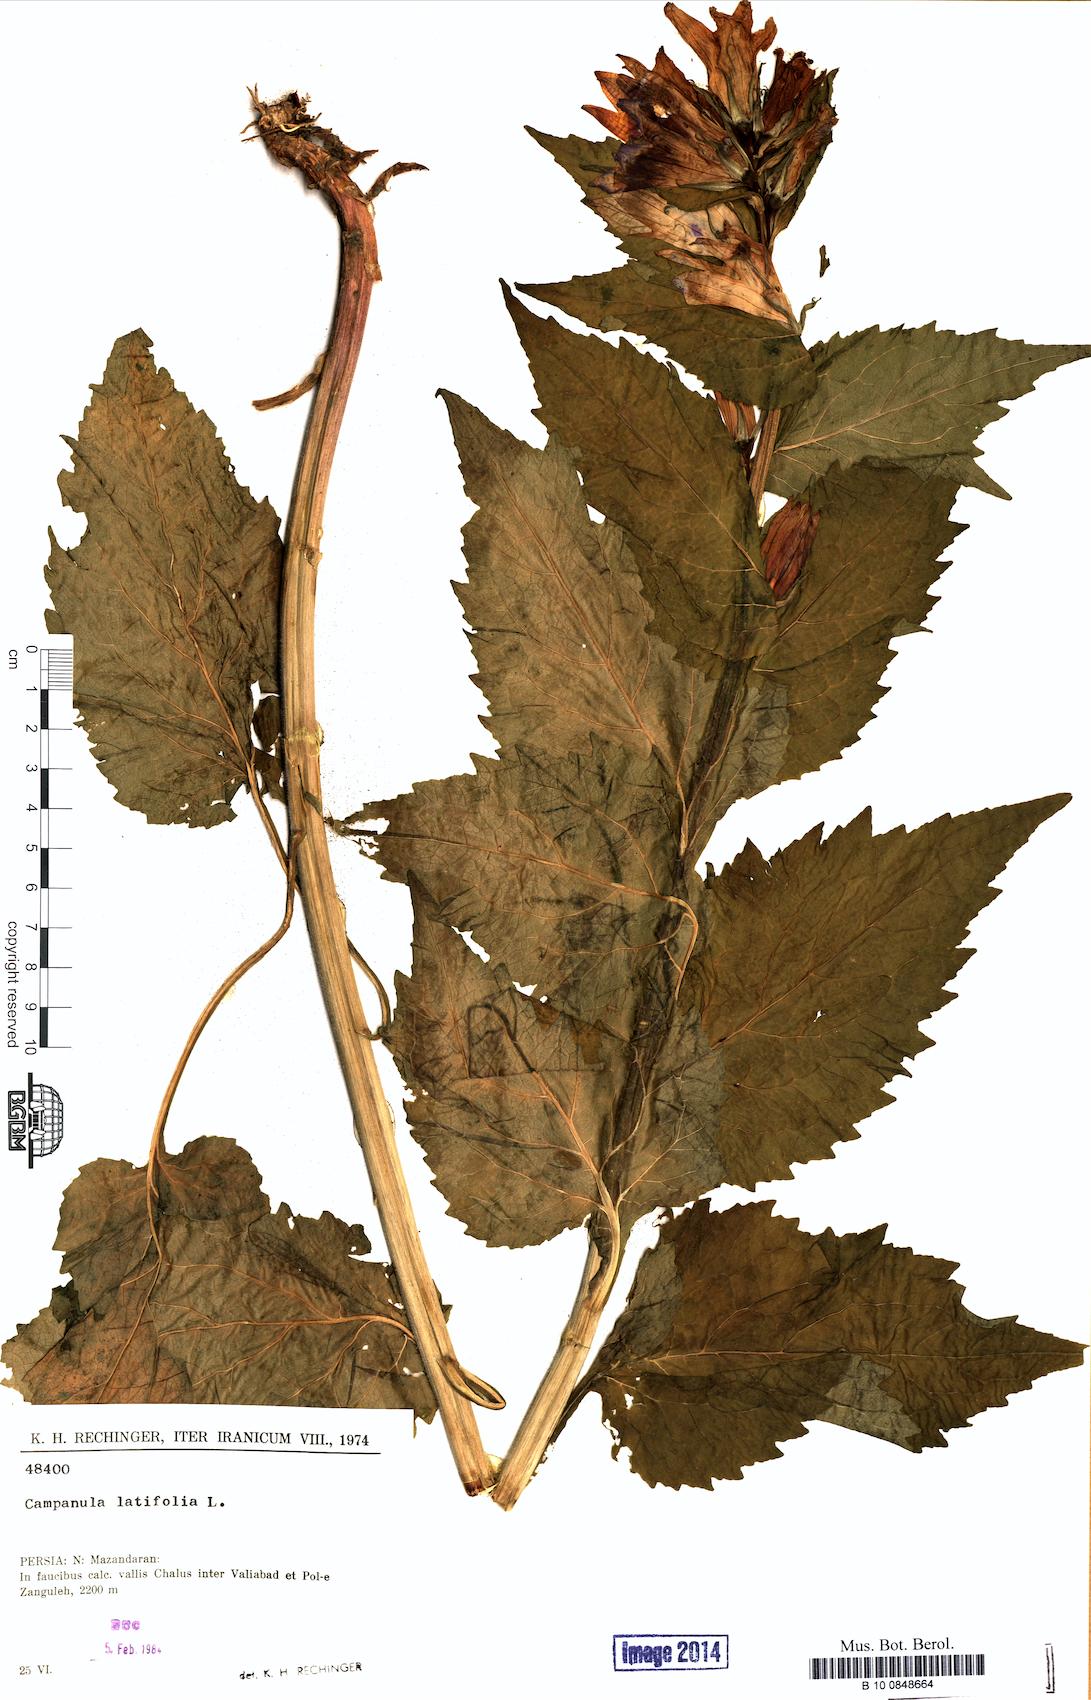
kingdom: Plantae
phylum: Tracheophyta
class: Magnoliopsida
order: Asterales
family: Campanulaceae
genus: Campanula
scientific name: Campanula latifolia
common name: Giant bellflower
